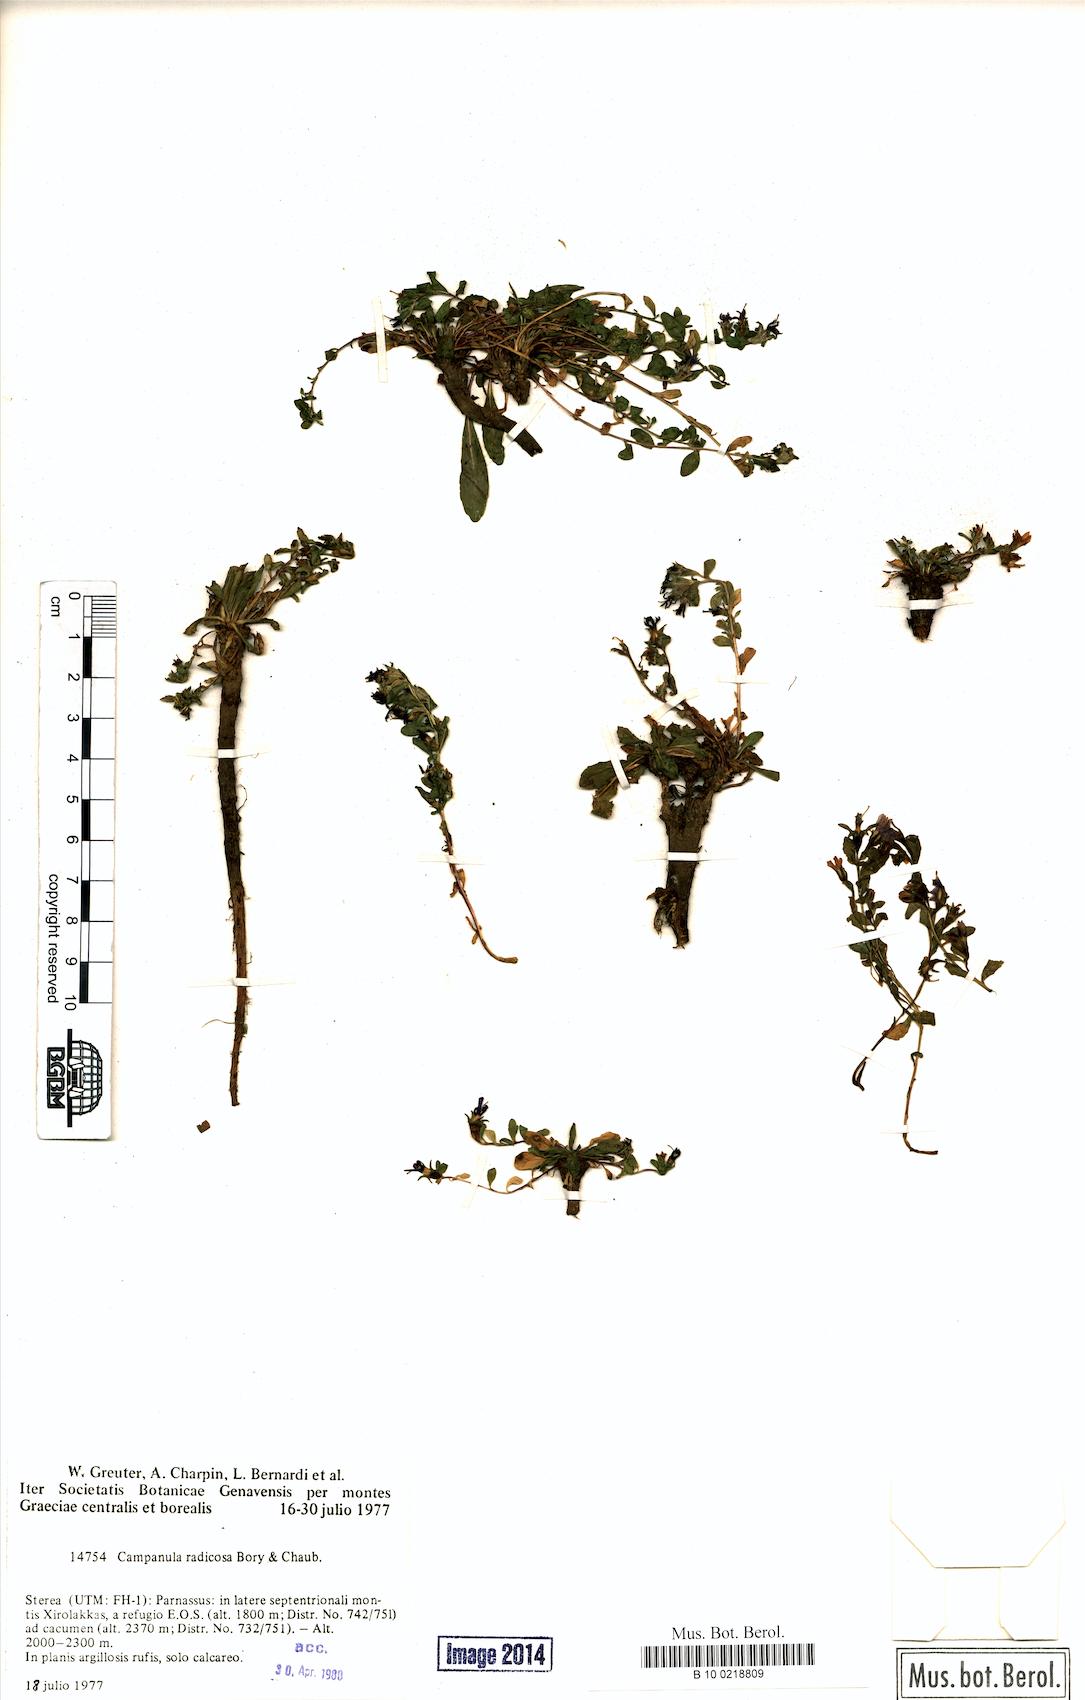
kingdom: Plantae
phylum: Tracheophyta
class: Magnoliopsida
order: Asterales
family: Campanulaceae
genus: Campanula
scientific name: Campanula radicosa
